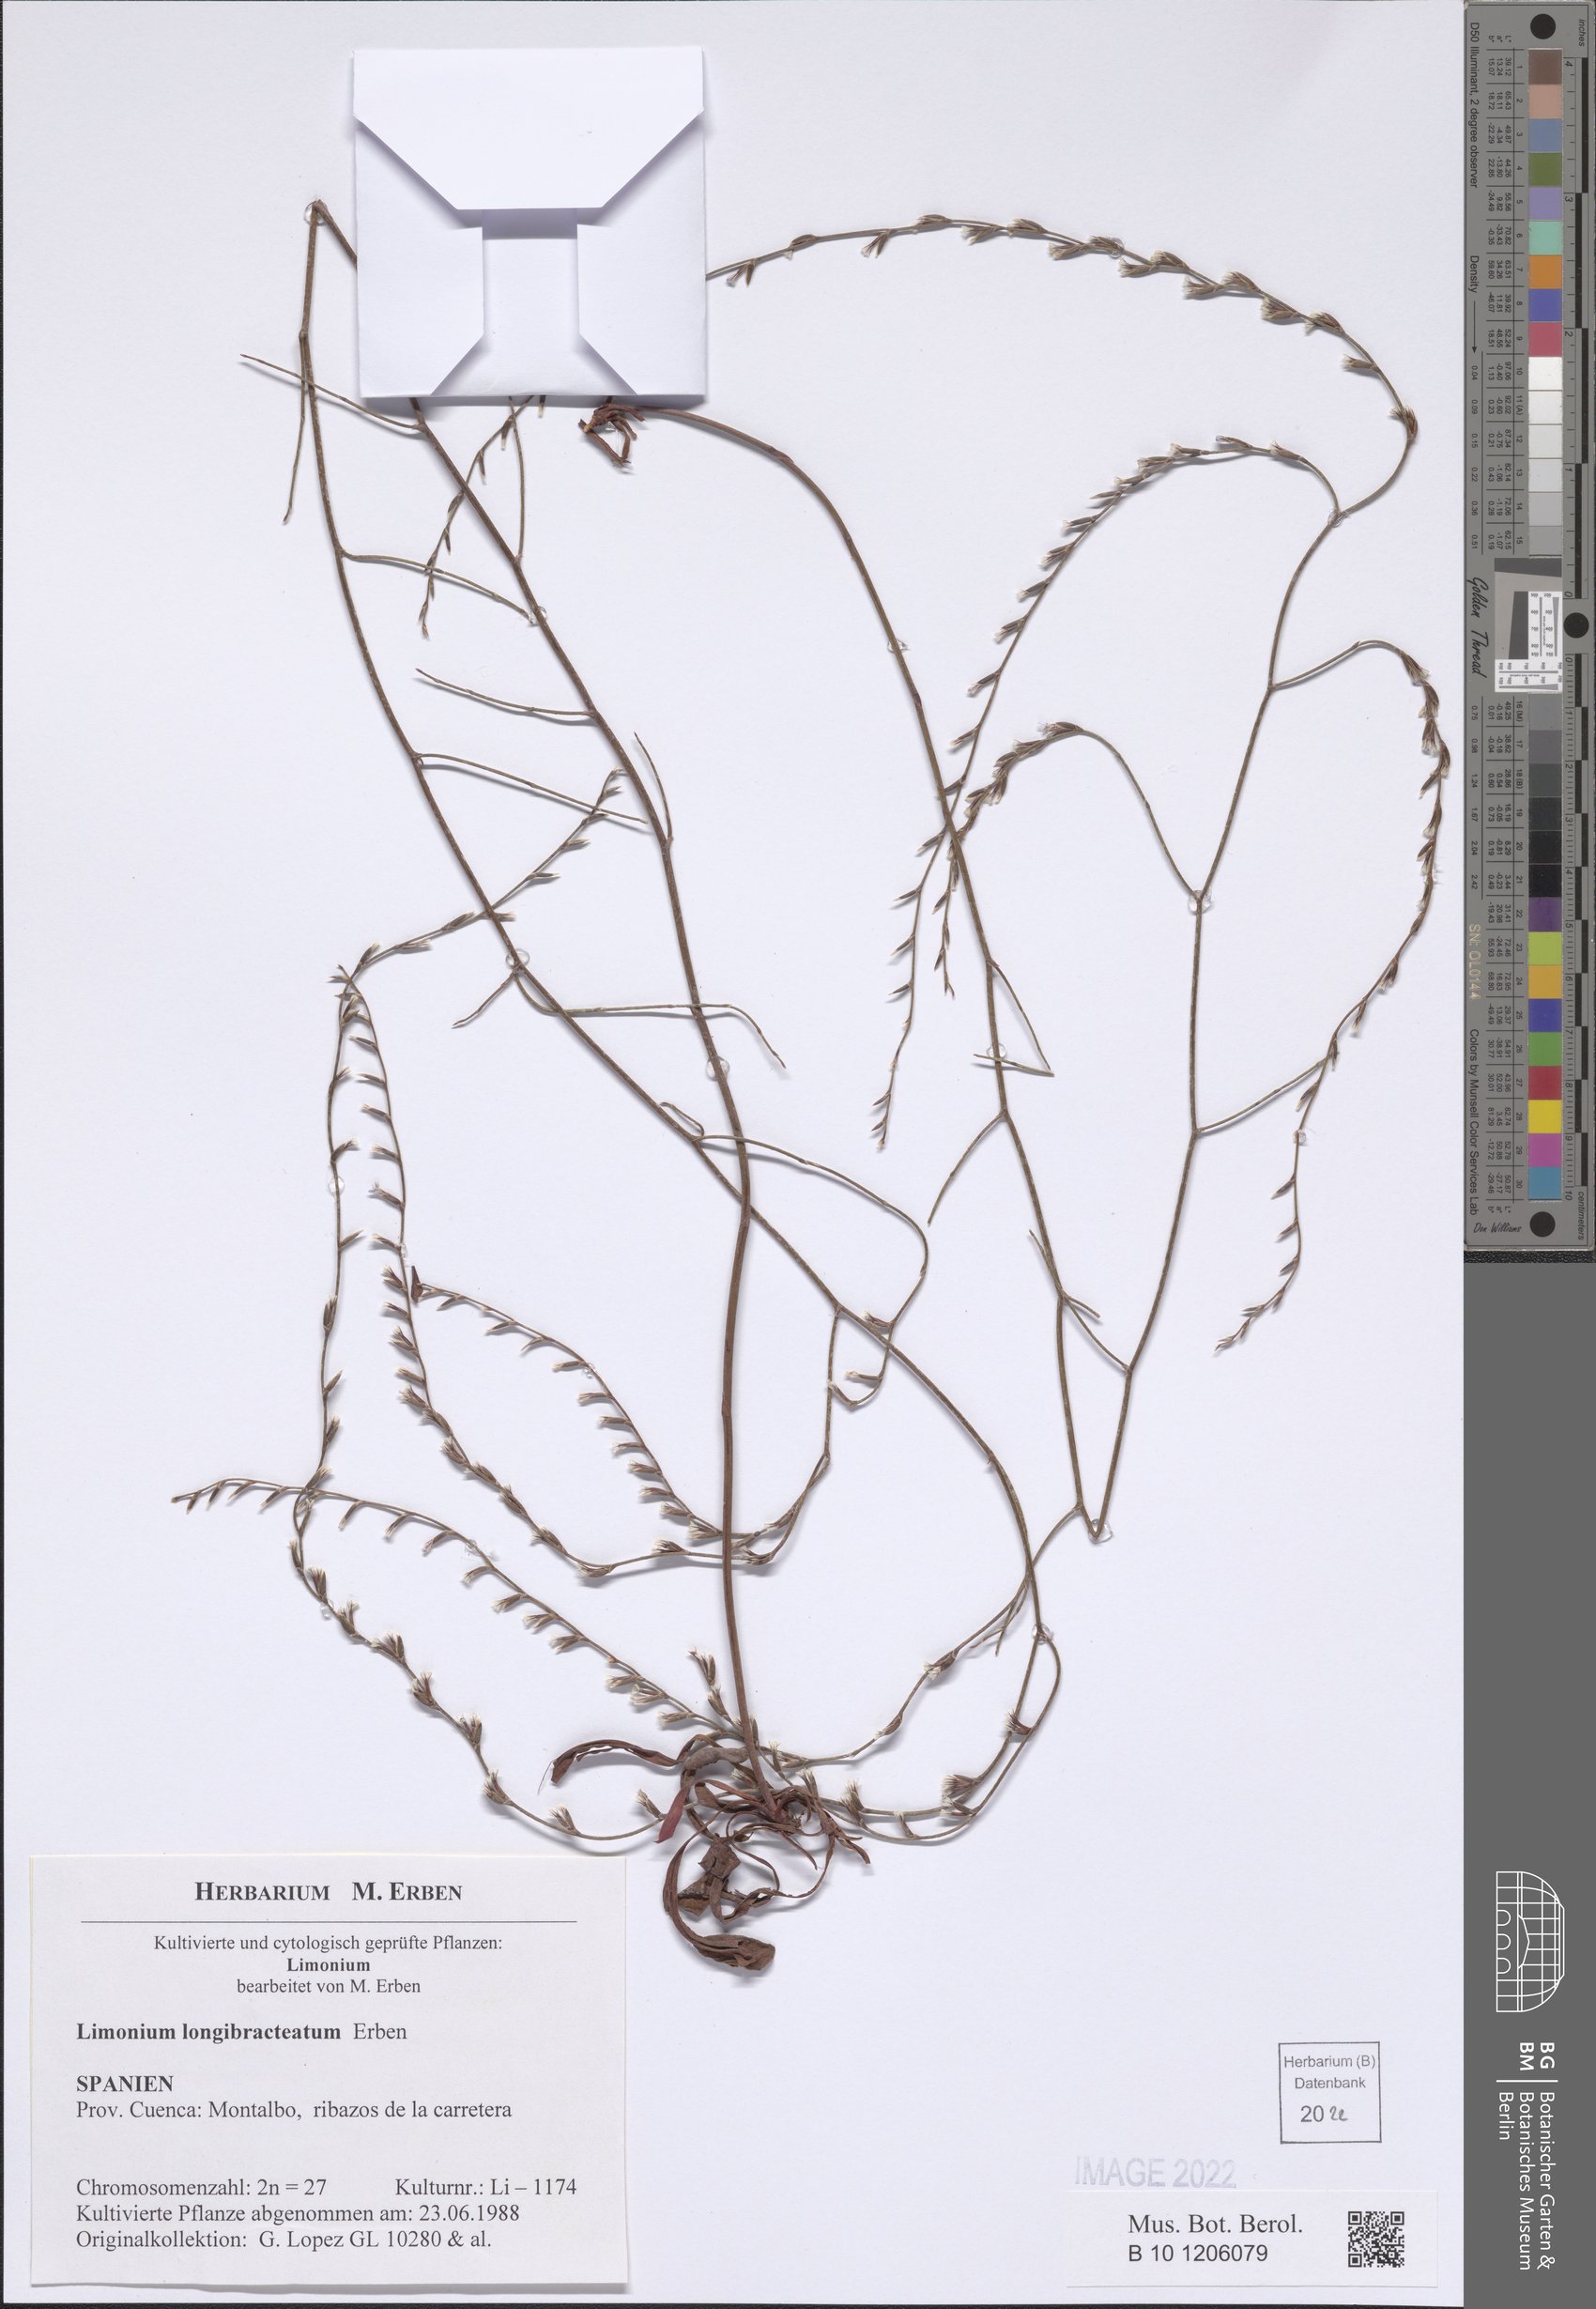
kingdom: Plantae
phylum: Tracheophyta
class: Magnoliopsida
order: Caryophyllales
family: Plumbaginaceae
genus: Limonium
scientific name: Limonium longibracteatum
